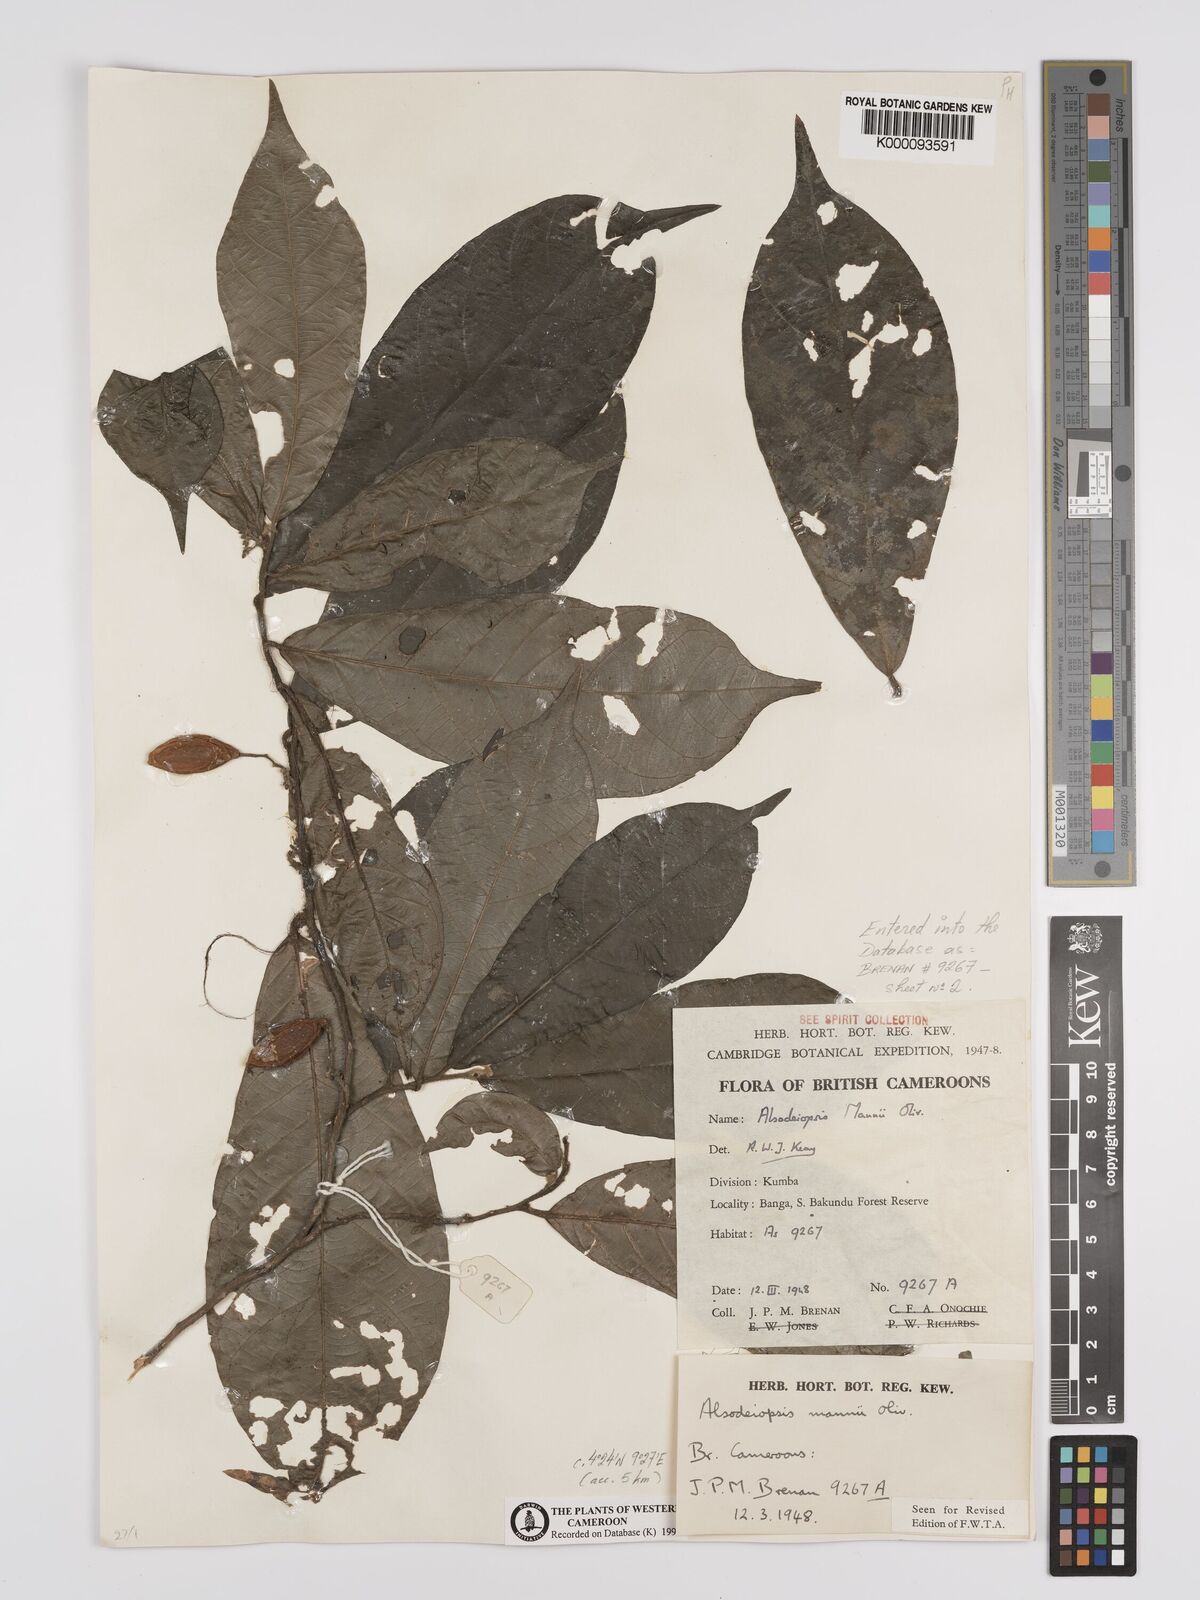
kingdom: Plantae
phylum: Tracheophyta
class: Magnoliopsida
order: Icacinales
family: Icacinaceae
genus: Alsodeiopsis
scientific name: Alsodeiopsis mannii
